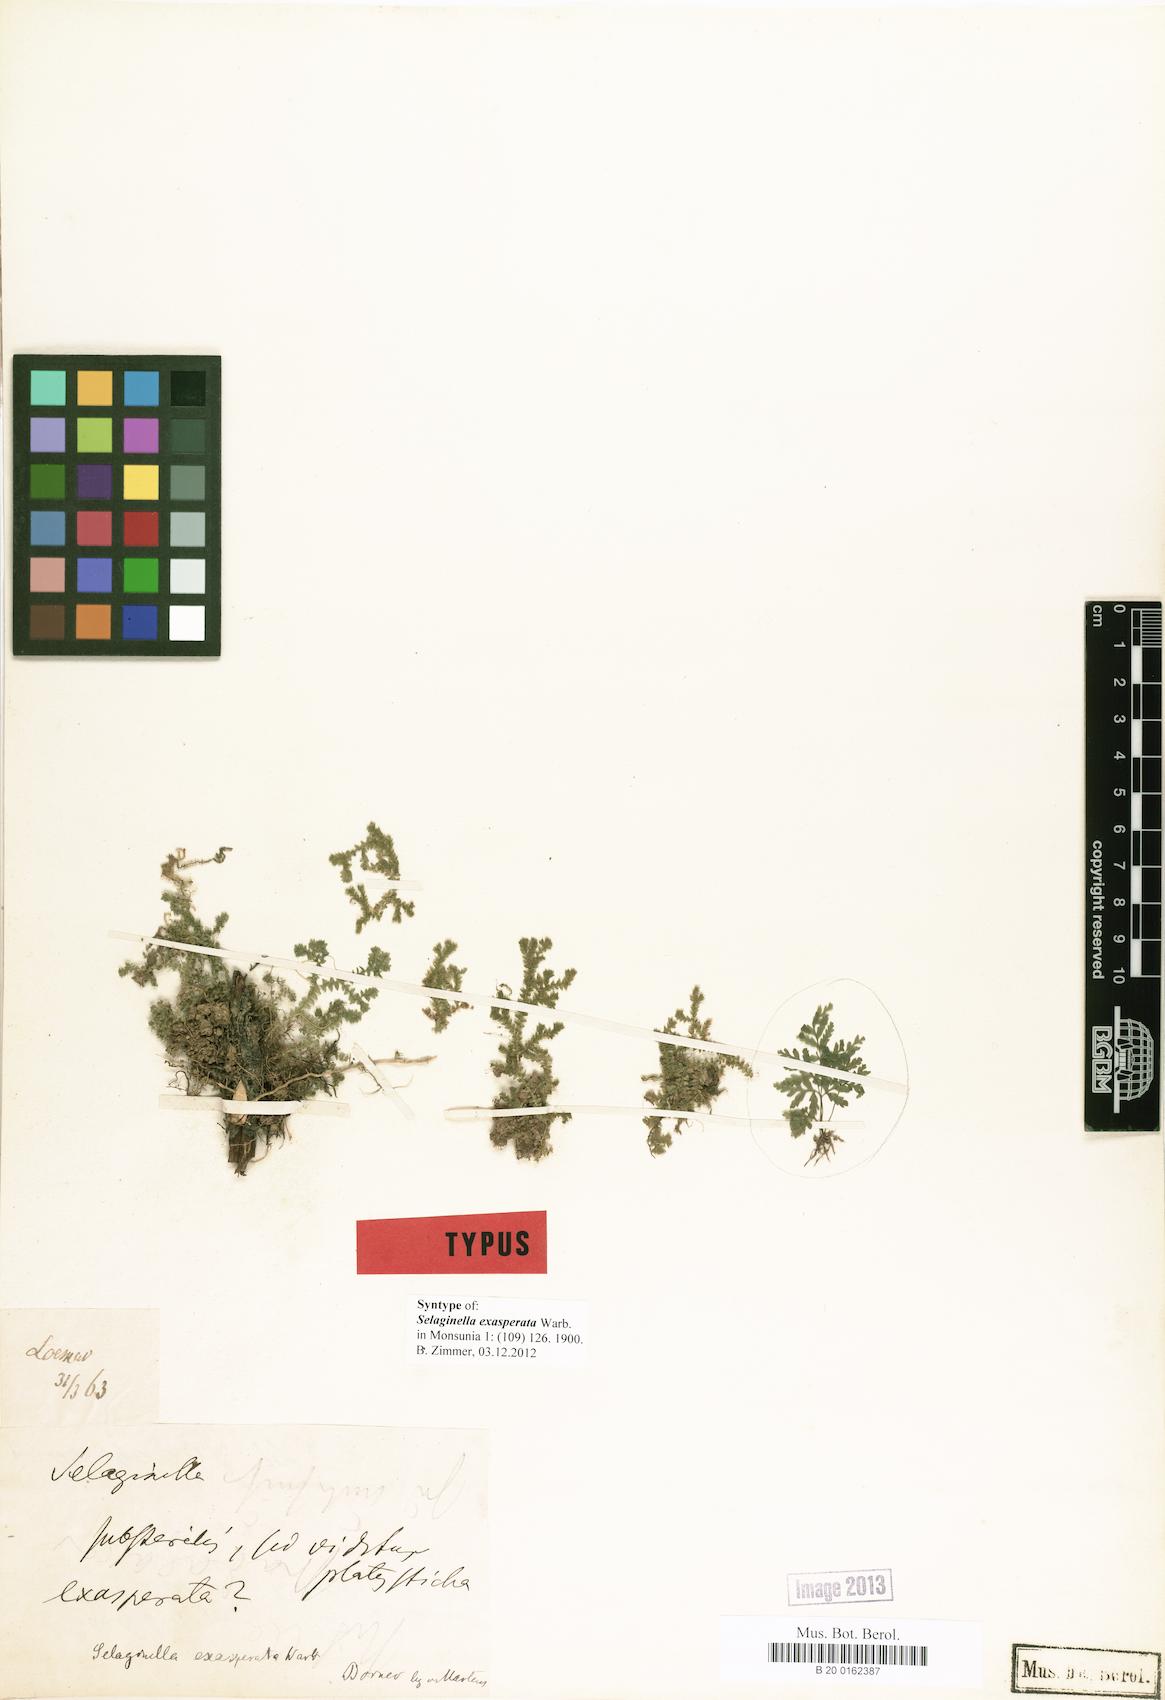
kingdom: Plantae
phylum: Tracheophyta
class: Lycopodiopsida
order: Selaginellales
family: Selaginellaceae
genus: Selaginella
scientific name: Selaginella exasperata
